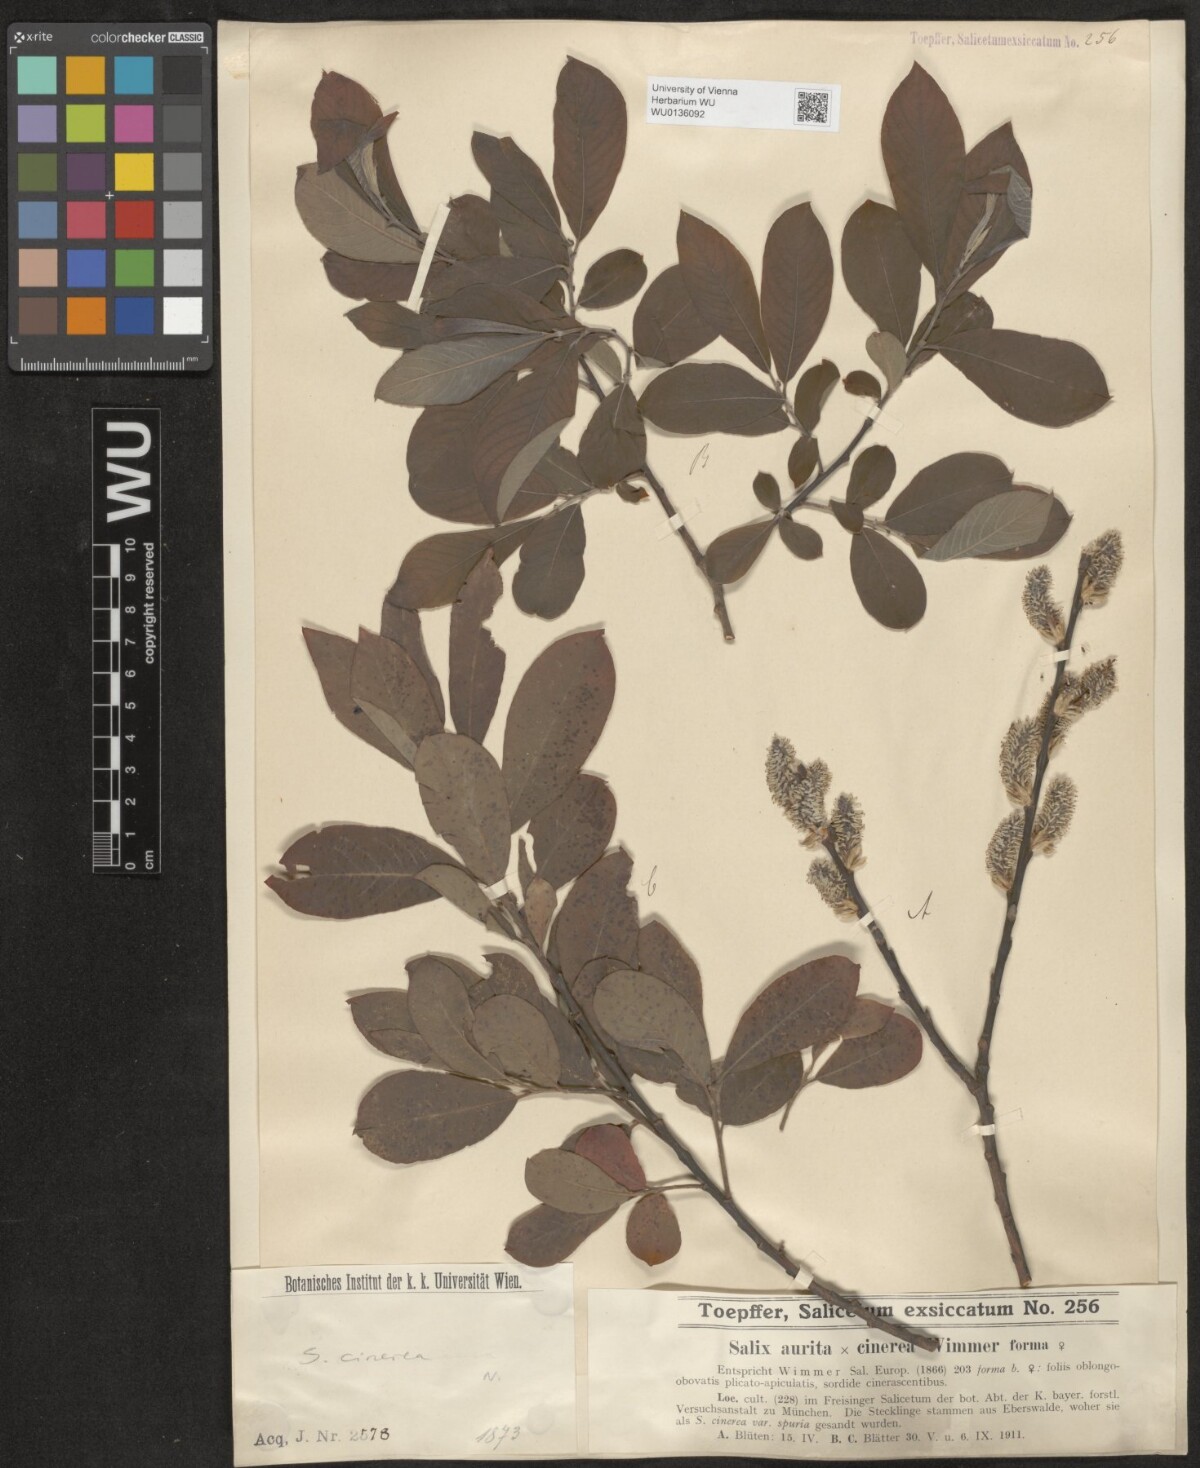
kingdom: Plantae
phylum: Tracheophyta
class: Magnoliopsida
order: Malpighiales
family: Salicaceae
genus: Salix
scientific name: Salix cinerea
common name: Common sallow
